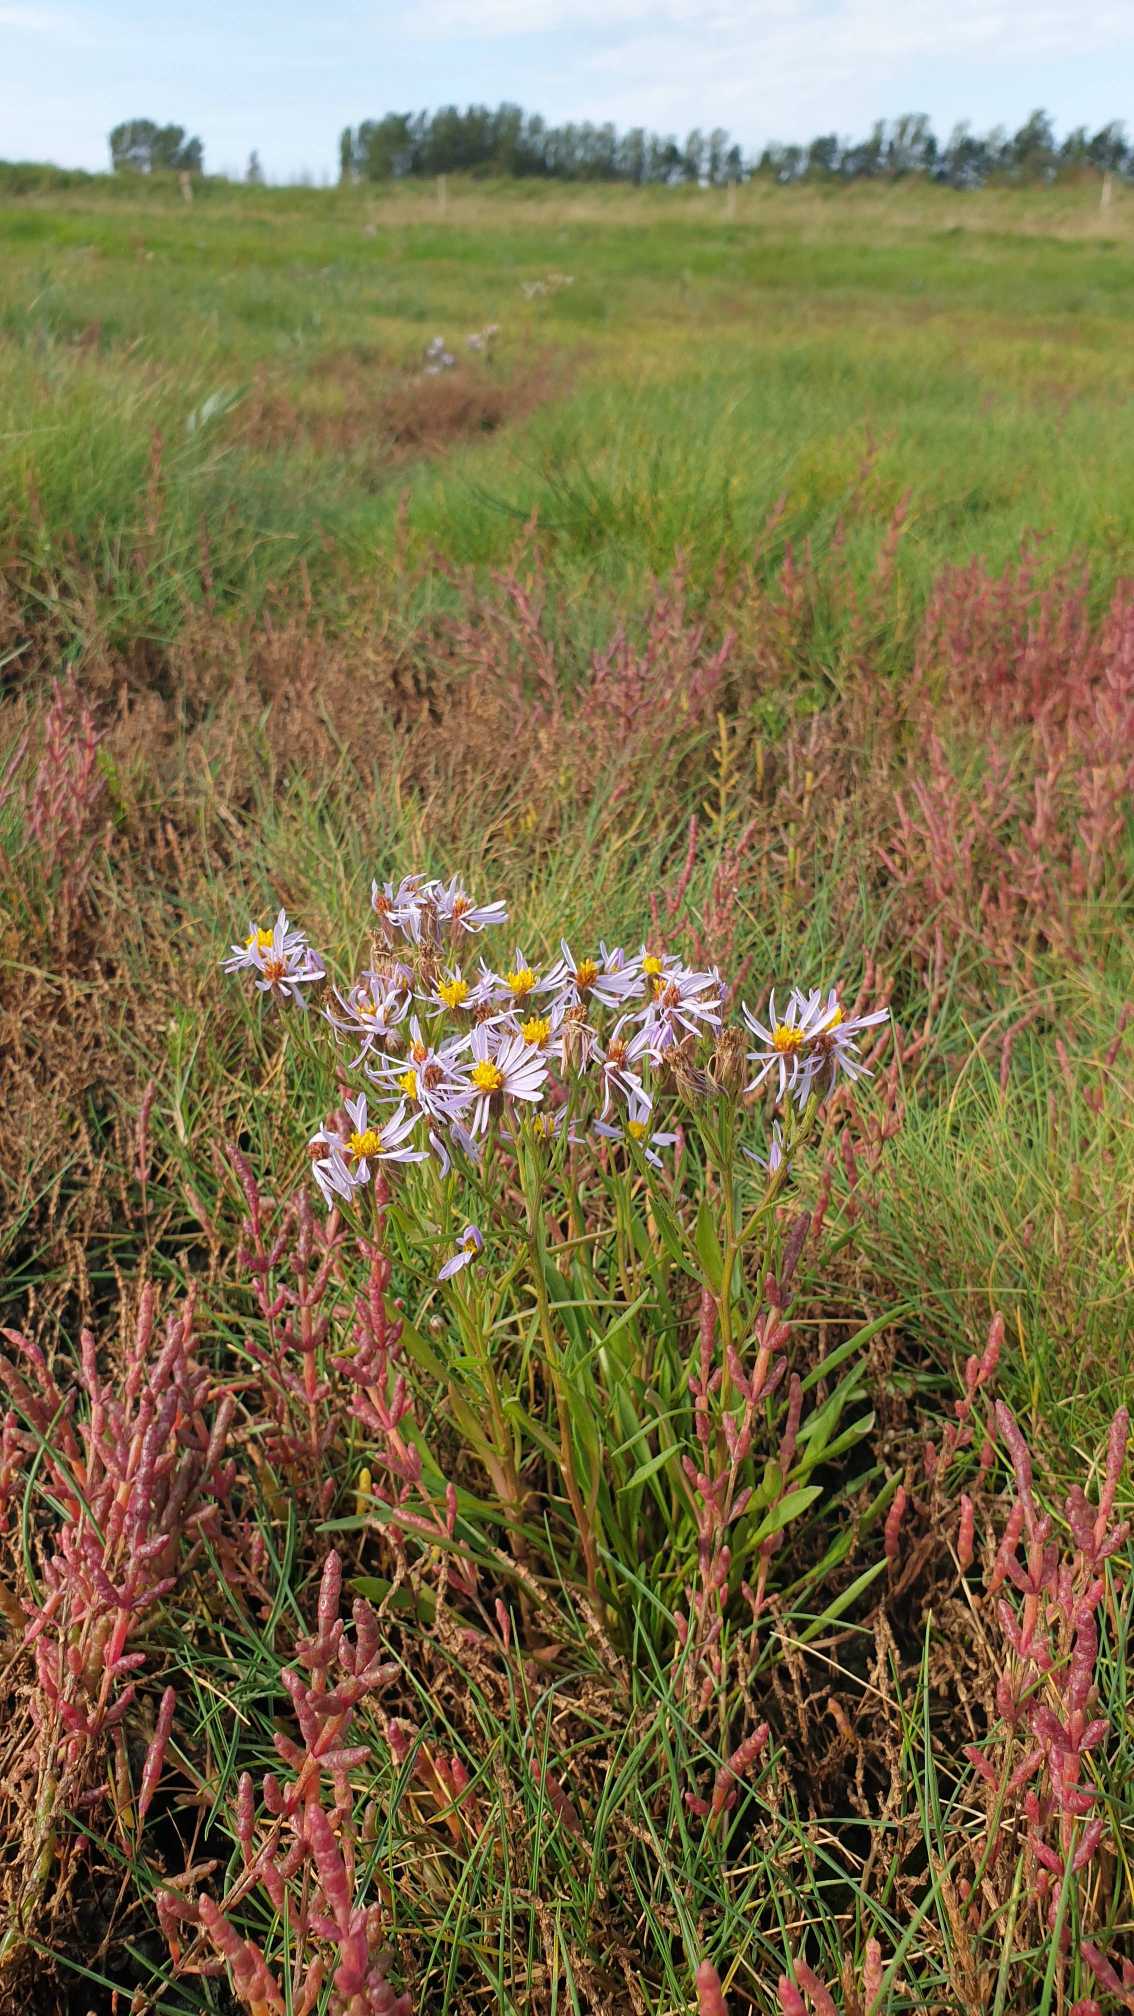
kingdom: Plantae
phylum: Tracheophyta
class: Magnoliopsida
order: Asterales
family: Asteraceae
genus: Tripolium
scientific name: Tripolium pannonicum
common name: Strandasters
